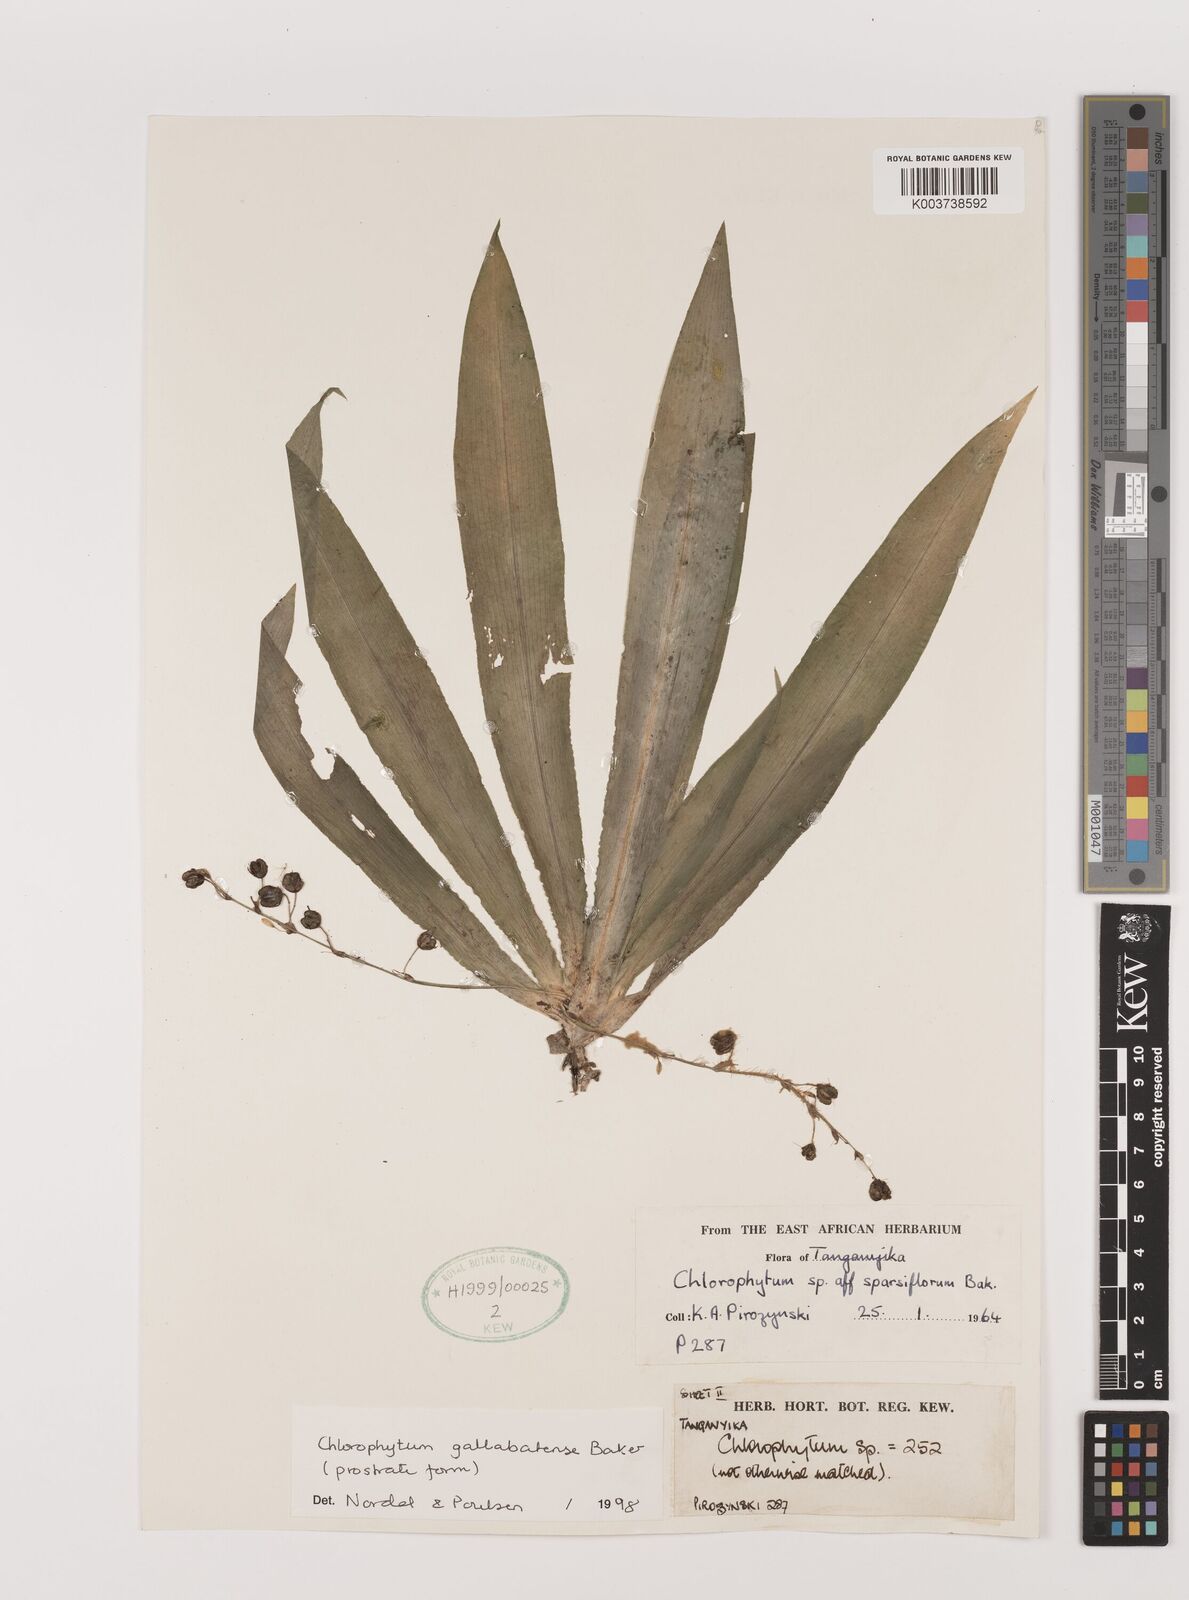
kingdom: Plantae
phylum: Tracheophyta
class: Liliopsida
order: Asparagales
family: Asparagaceae
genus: Chlorophytum
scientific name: Chlorophytum gallabatense
